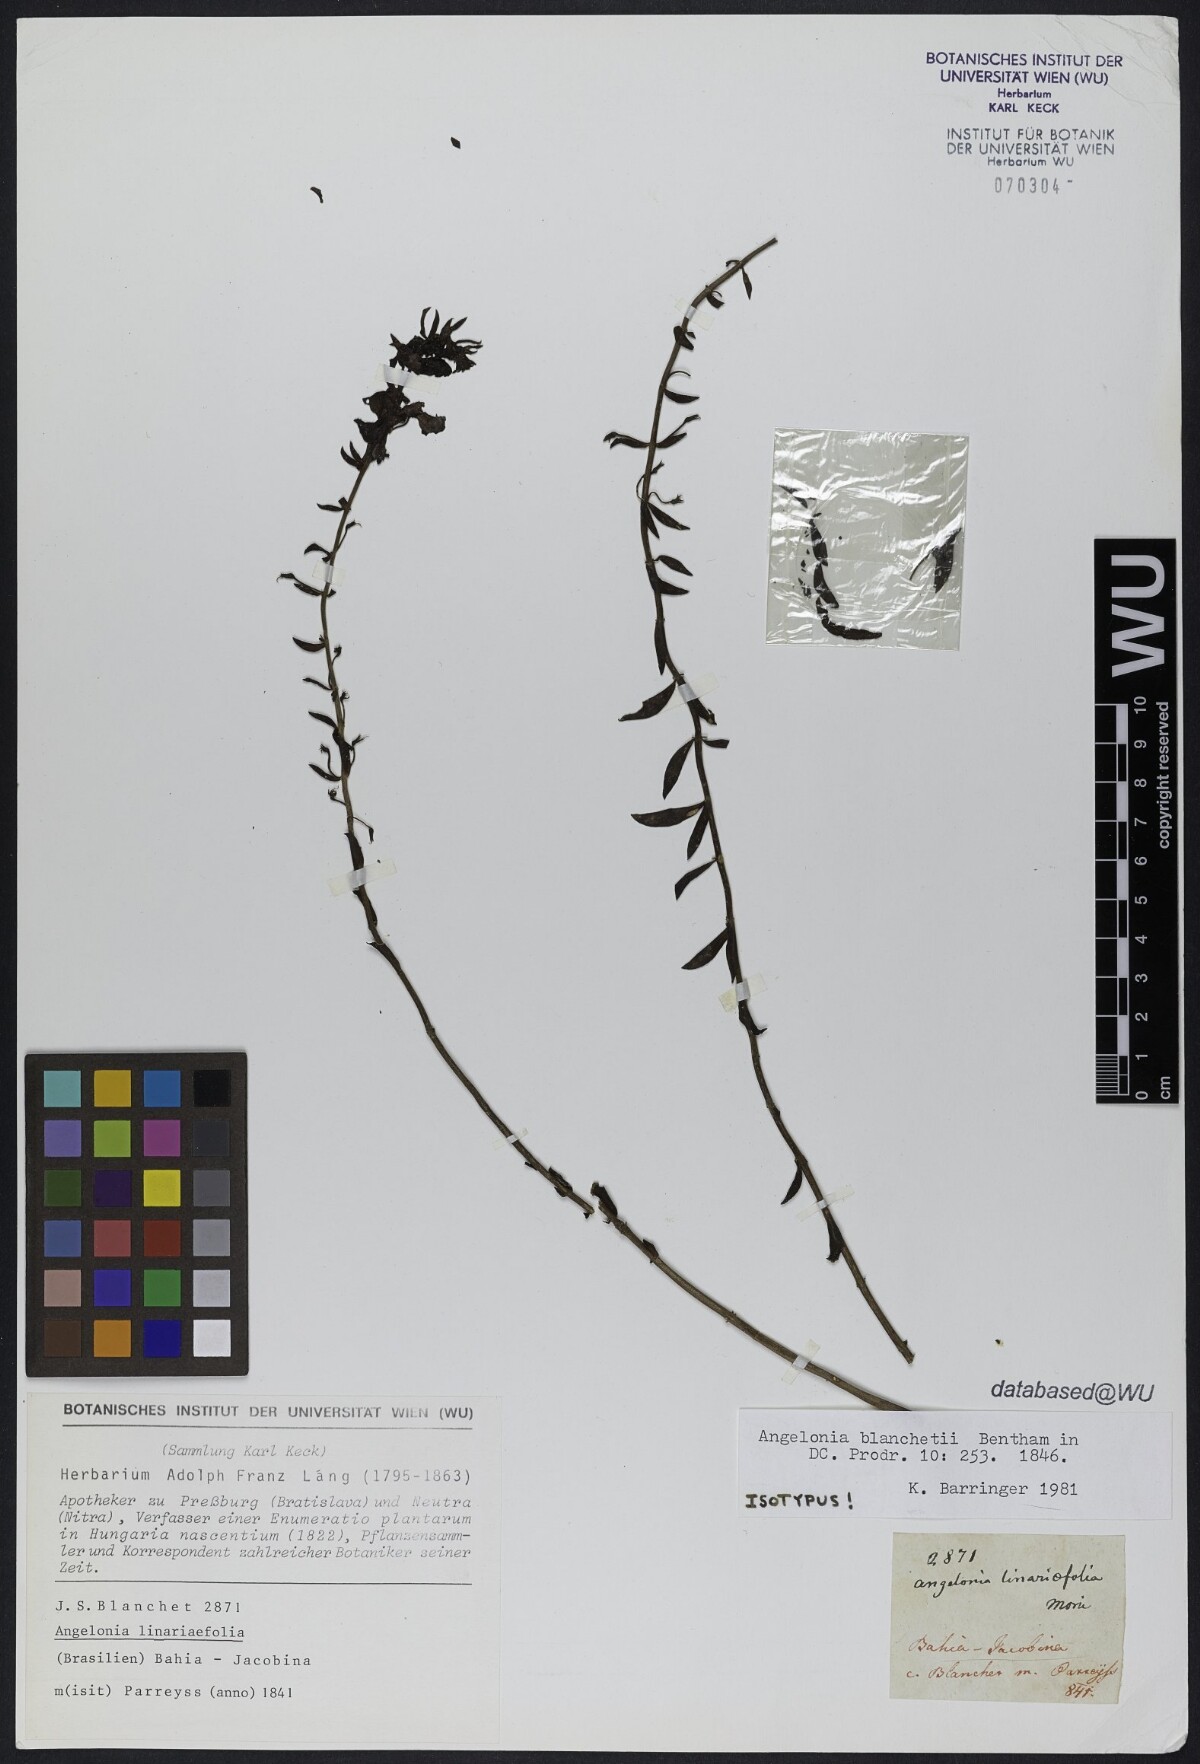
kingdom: Plantae
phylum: Tracheophyta
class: Magnoliopsida
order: Lamiales
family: Plantaginaceae
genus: Angelonia
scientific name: Angelonia blanchetii
